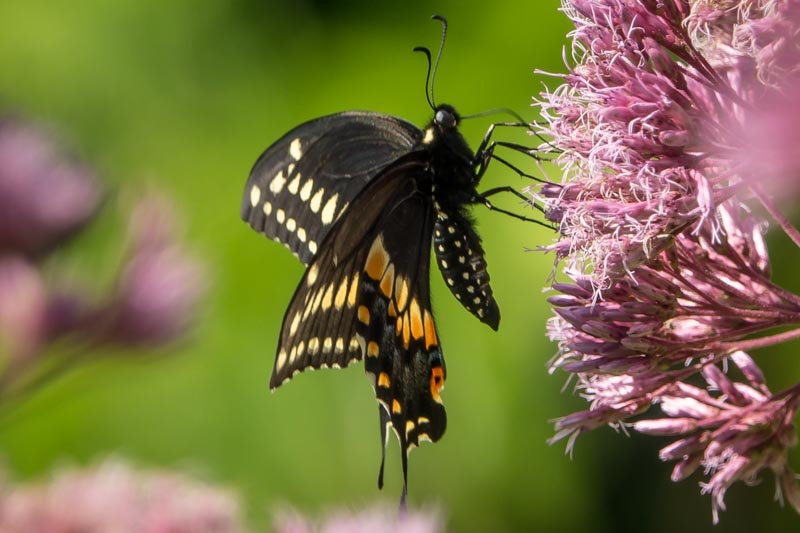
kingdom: Animalia
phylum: Arthropoda
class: Insecta
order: Lepidoptera
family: Papilionidae
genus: Papilio
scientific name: Papilio polyxenes
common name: Black Swallowtail
